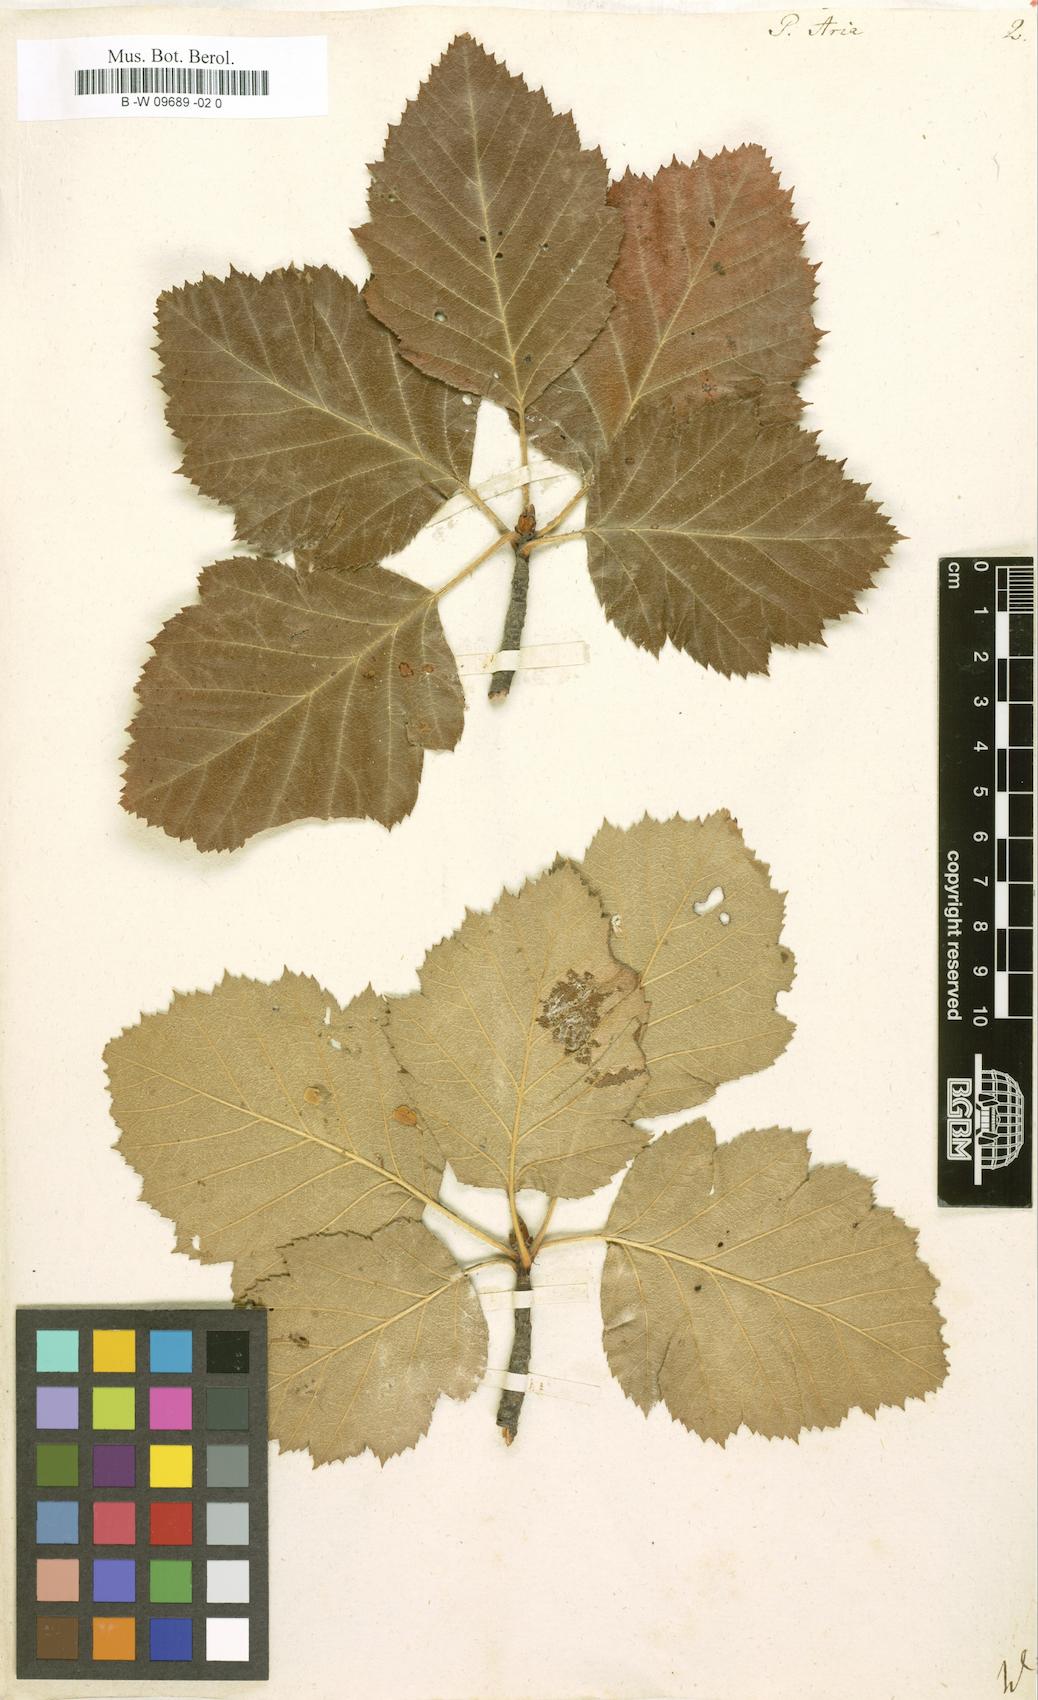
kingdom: Plantae
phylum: Tracheophyta
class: Magnoliopsida
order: Rosales
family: Rosaceae
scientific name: Rosaceae
